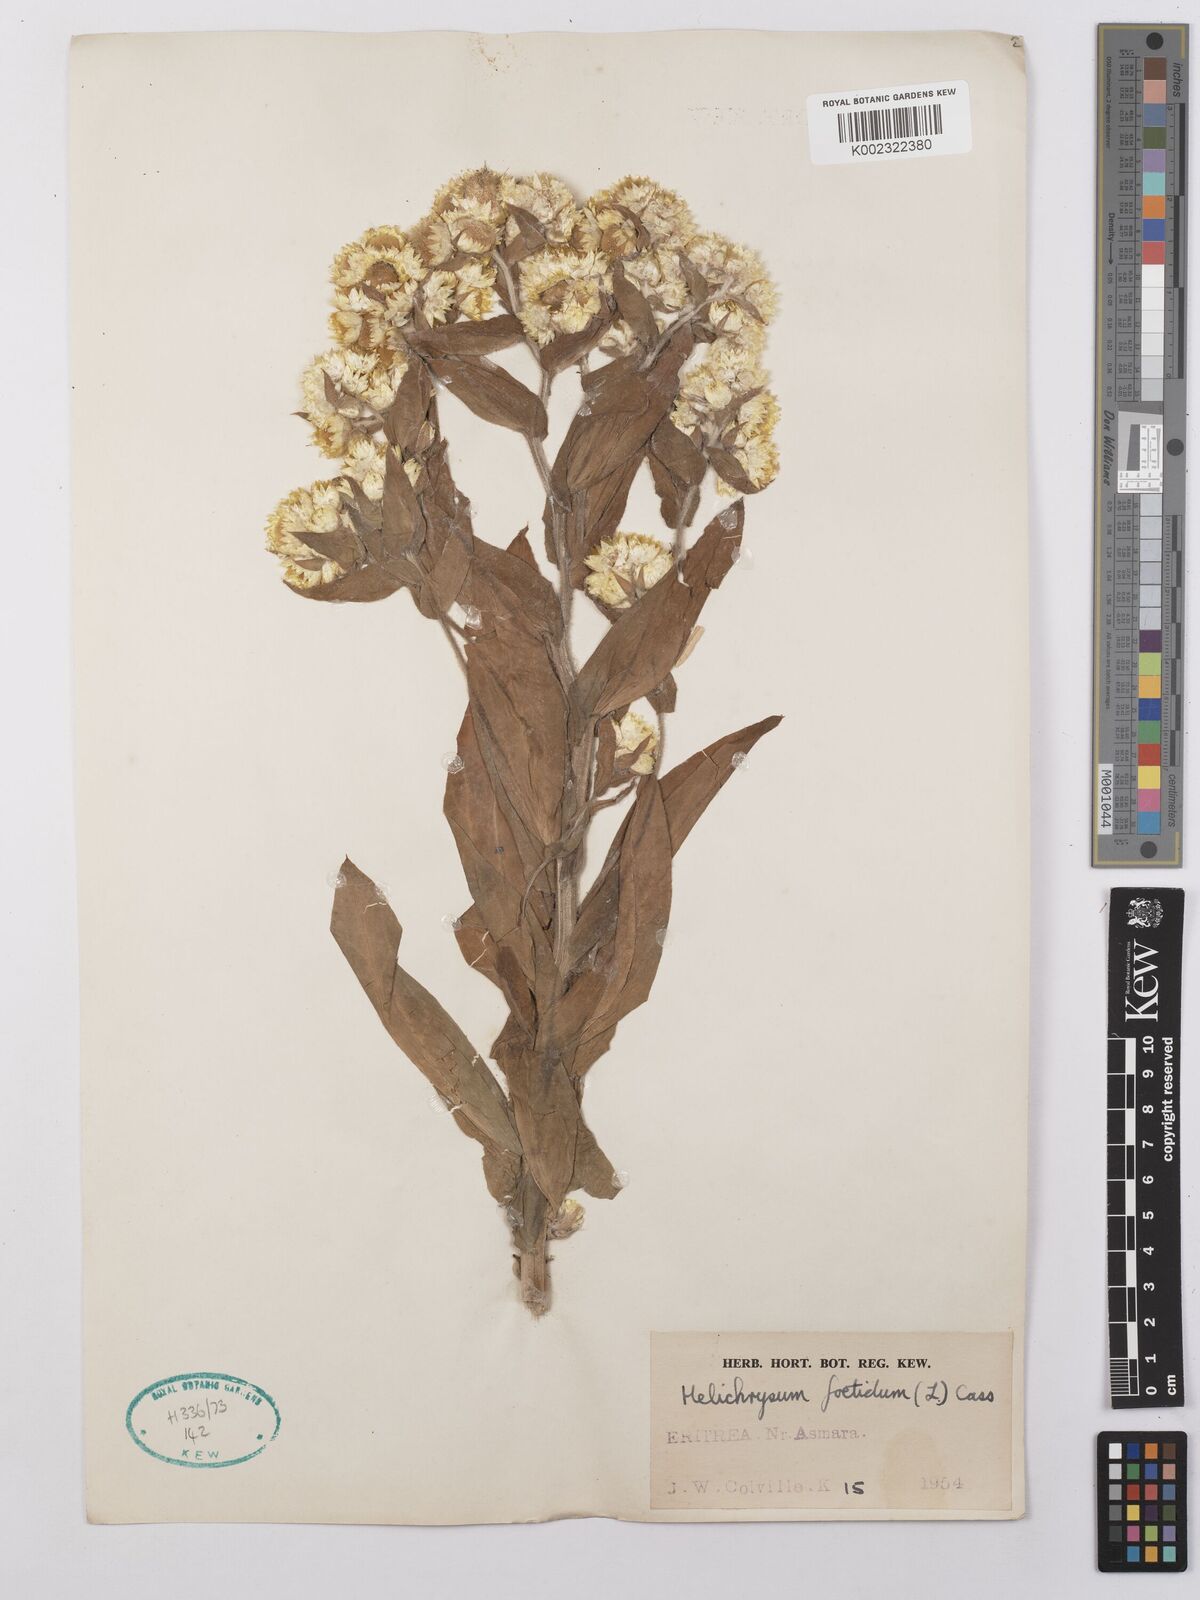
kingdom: Plantae
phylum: Tracheophyta
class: Magnoliopsida
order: Asterales
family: Asteraceae
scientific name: Asteraceae
